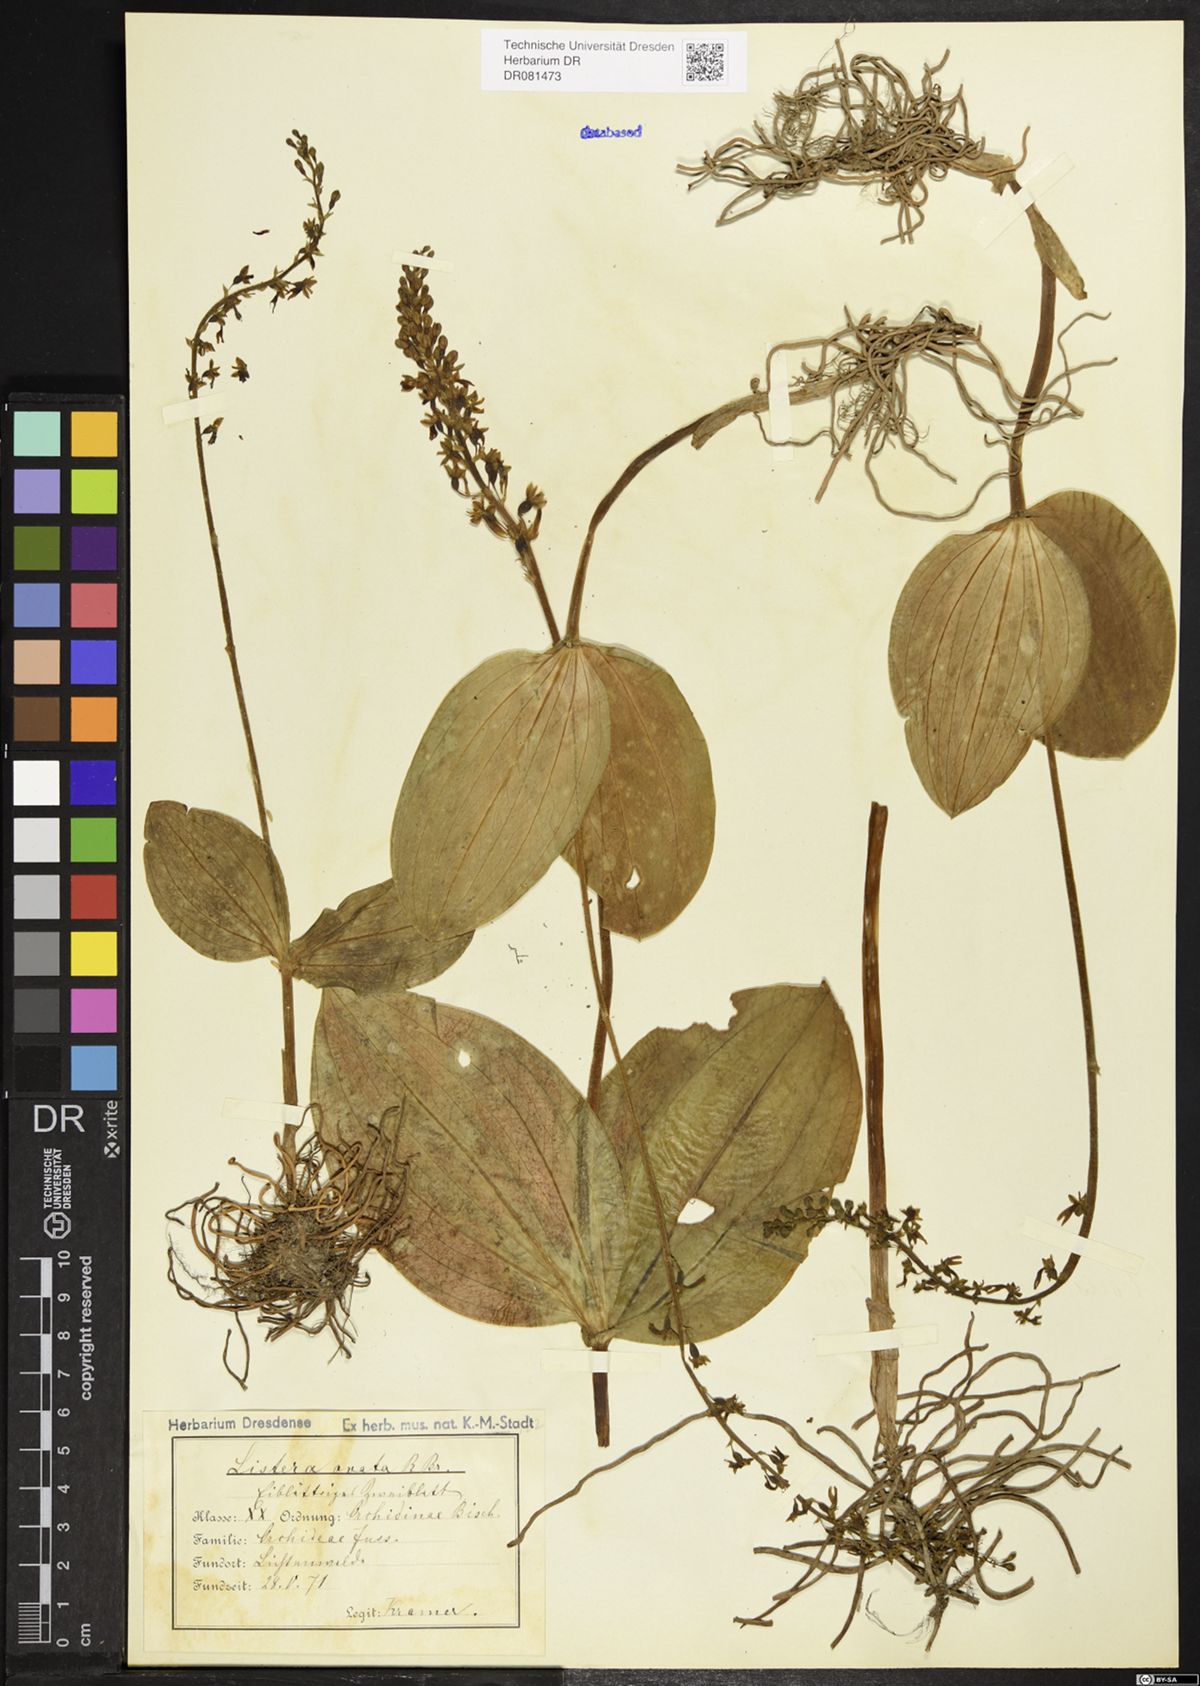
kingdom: Plantae
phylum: Tracheophyta
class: Liliopsida
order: Asparagales
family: Orchidaceae
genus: Neottia
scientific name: Neottia ovata
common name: Common twayblade
